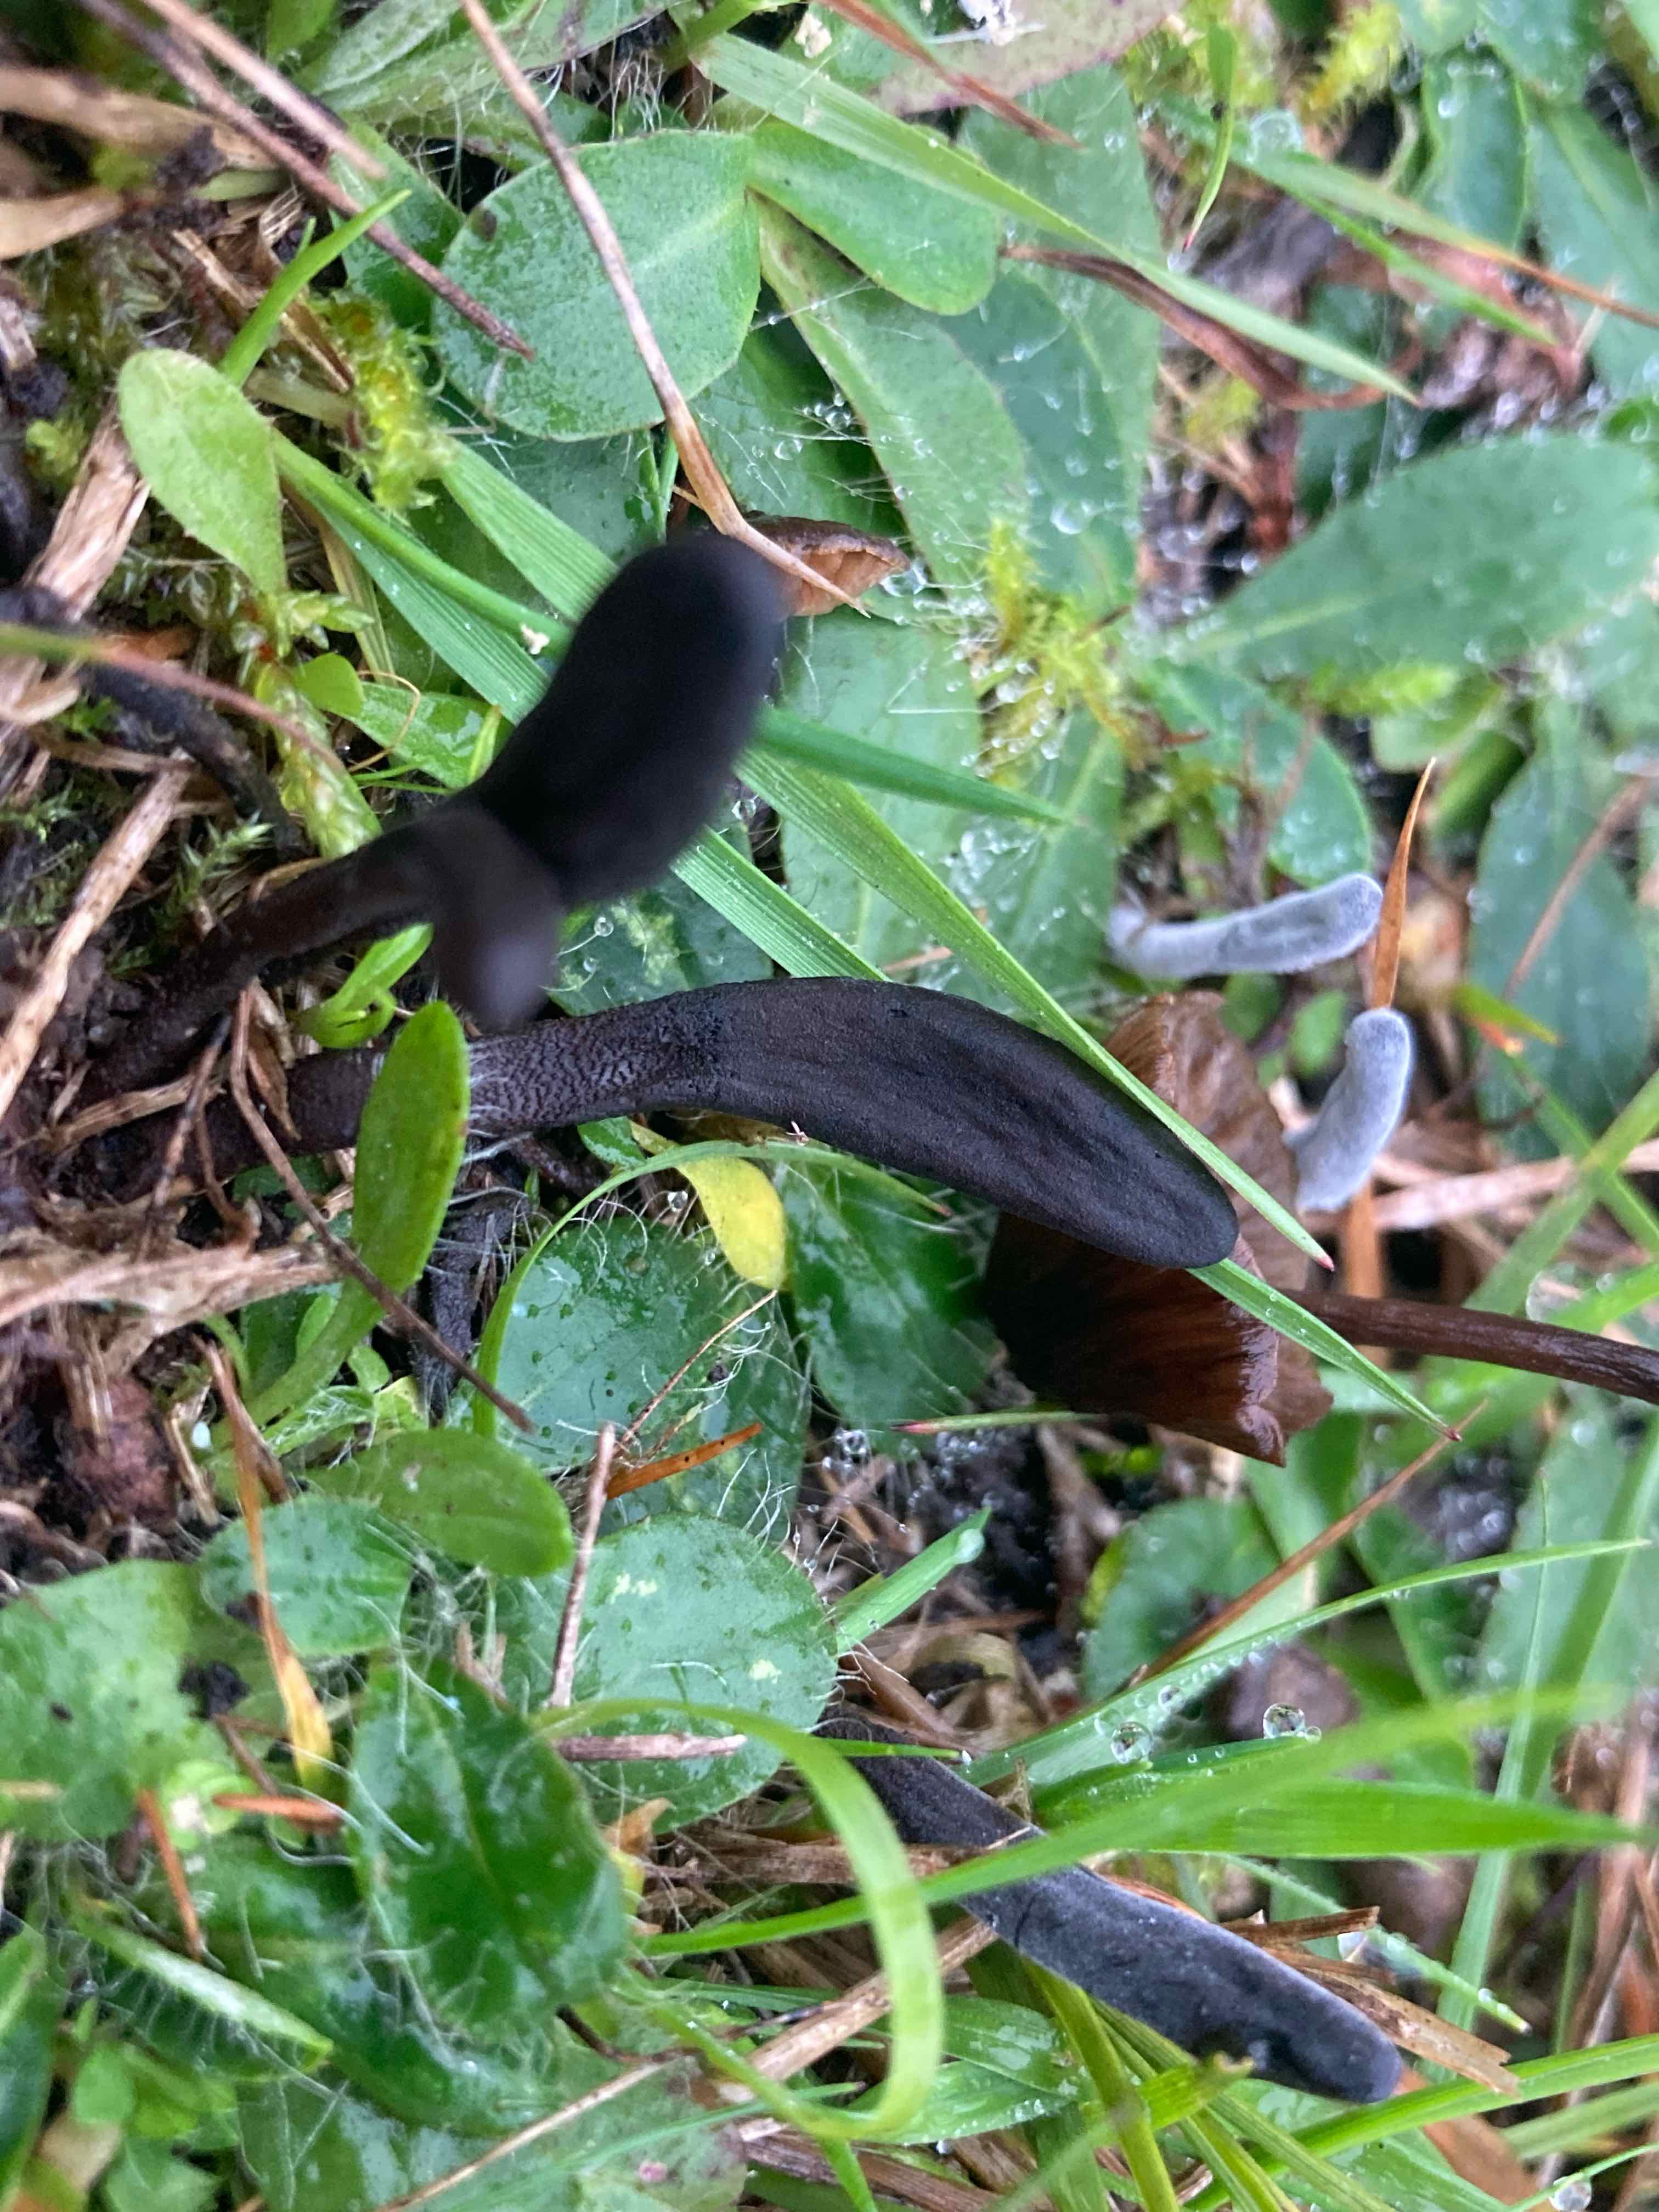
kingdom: Fungi
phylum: Ascomycota
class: Geoglossomycetes
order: Geoglossales
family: Geoglossaceae
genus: Geoglossum
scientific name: Geoglossum
